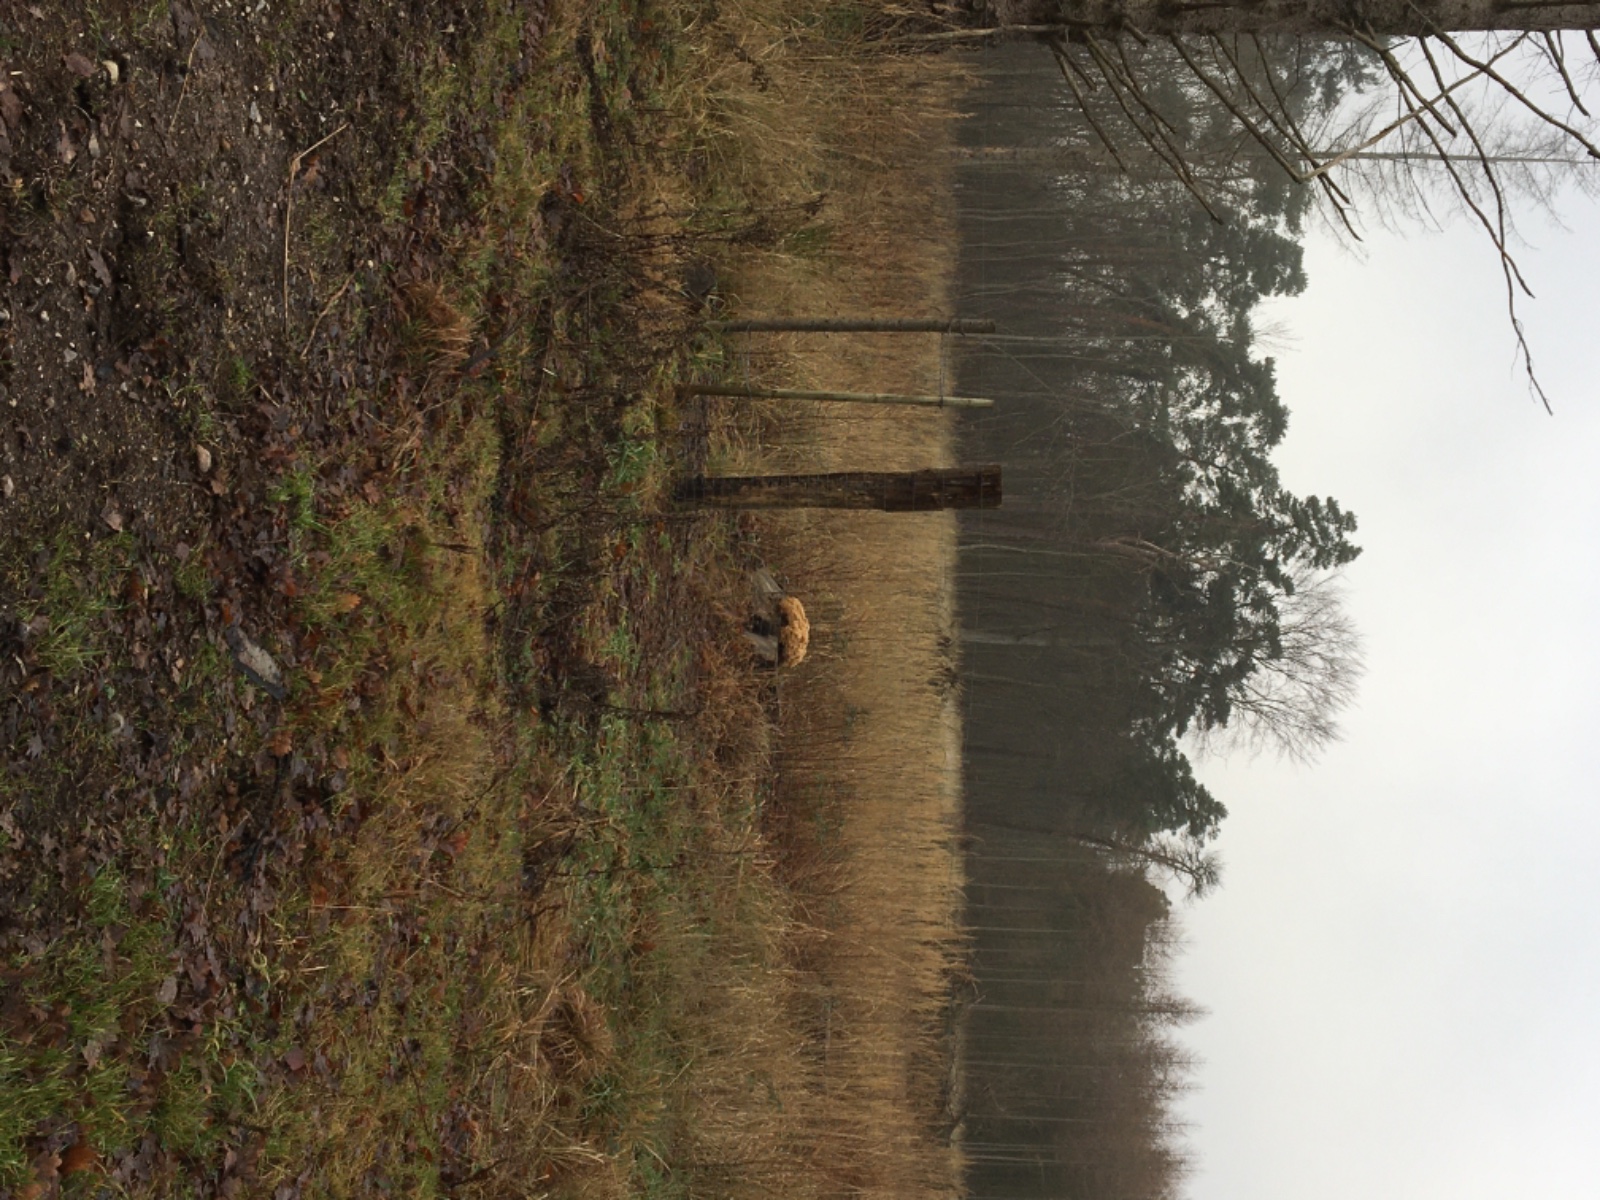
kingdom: Fungi
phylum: Basidiomycota
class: Agaricomycetes
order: Polyporales
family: Sparassidaceae
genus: Sparassis
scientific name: Sparassis crispa
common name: kruset blomkålssvamp
